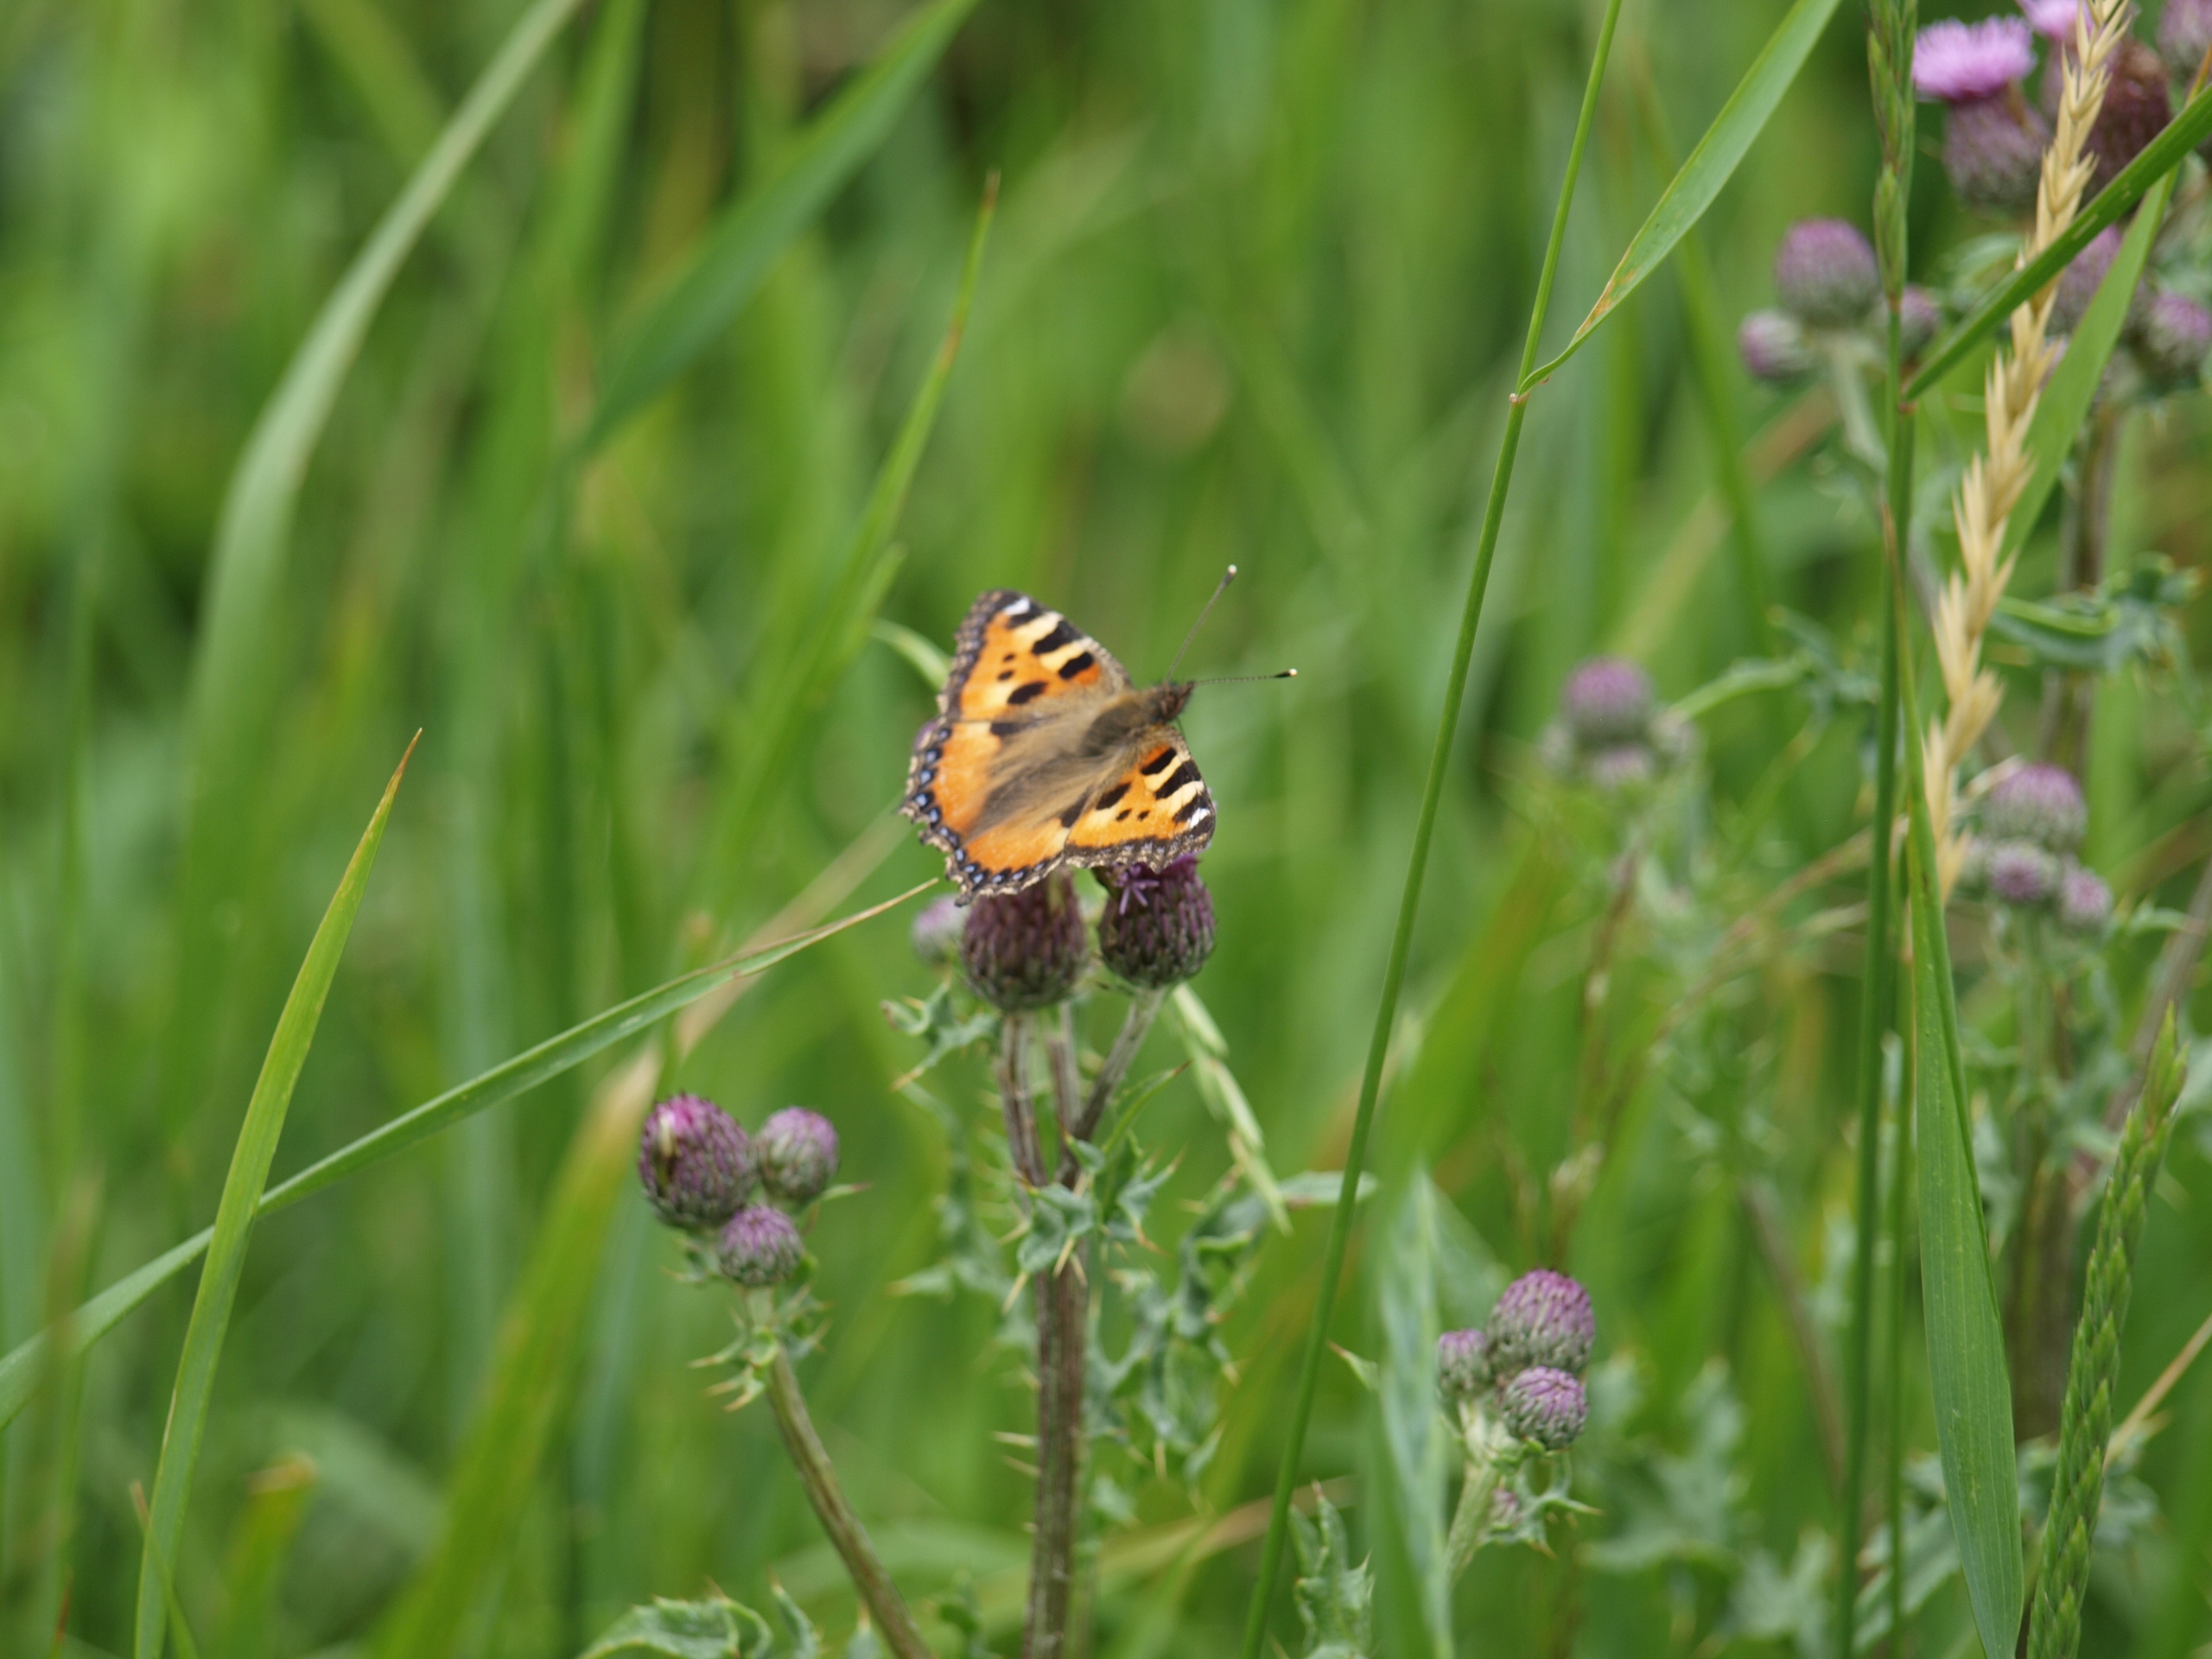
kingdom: Animalia
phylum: Arthropoda
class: Insecta
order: Lepidoptera
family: Nymphalidae
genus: Aglais
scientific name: Aglais urticae
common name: Nældens takvinge
